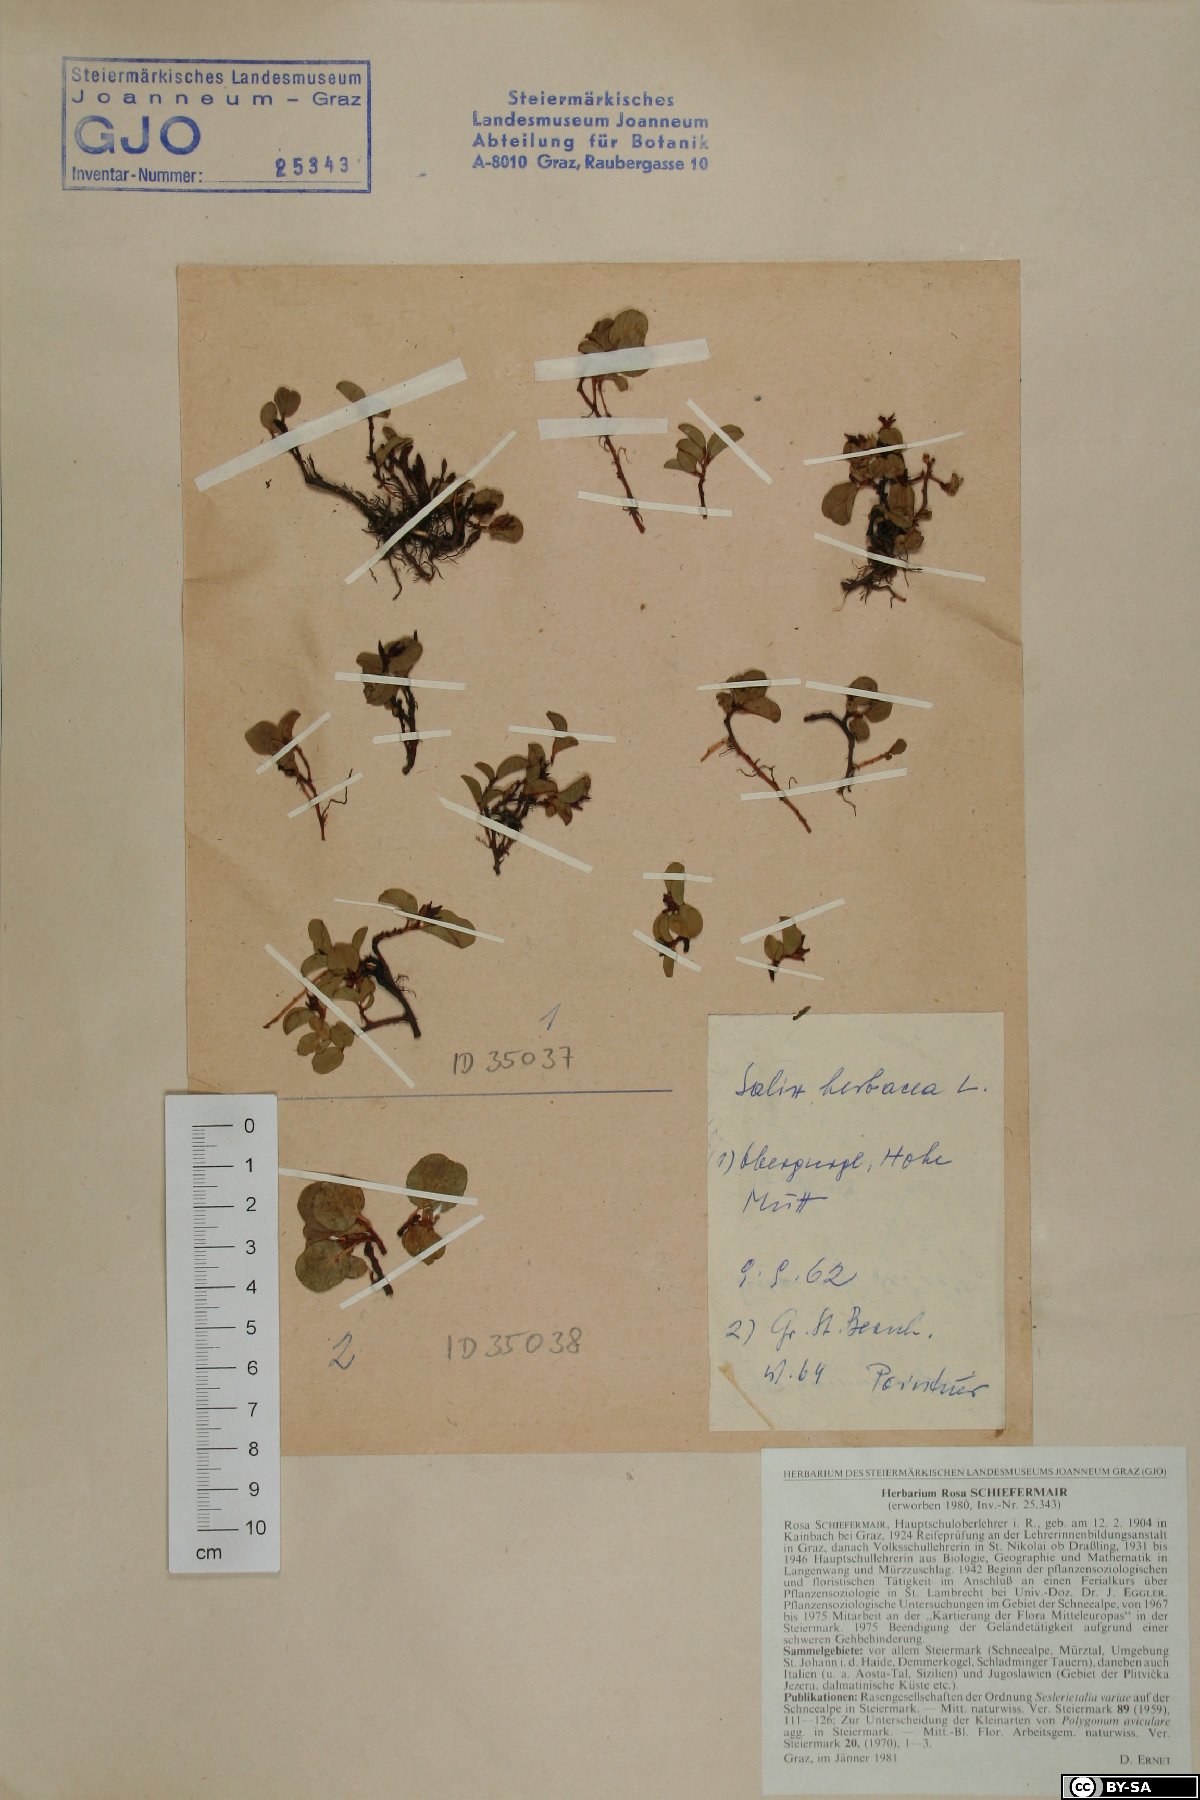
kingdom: Plantae
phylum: Tracheophyta
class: Magnoliopsida
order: Malpighiales
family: Salicaceae
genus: Salix
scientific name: Salix herbacea
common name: Dwarf willow
